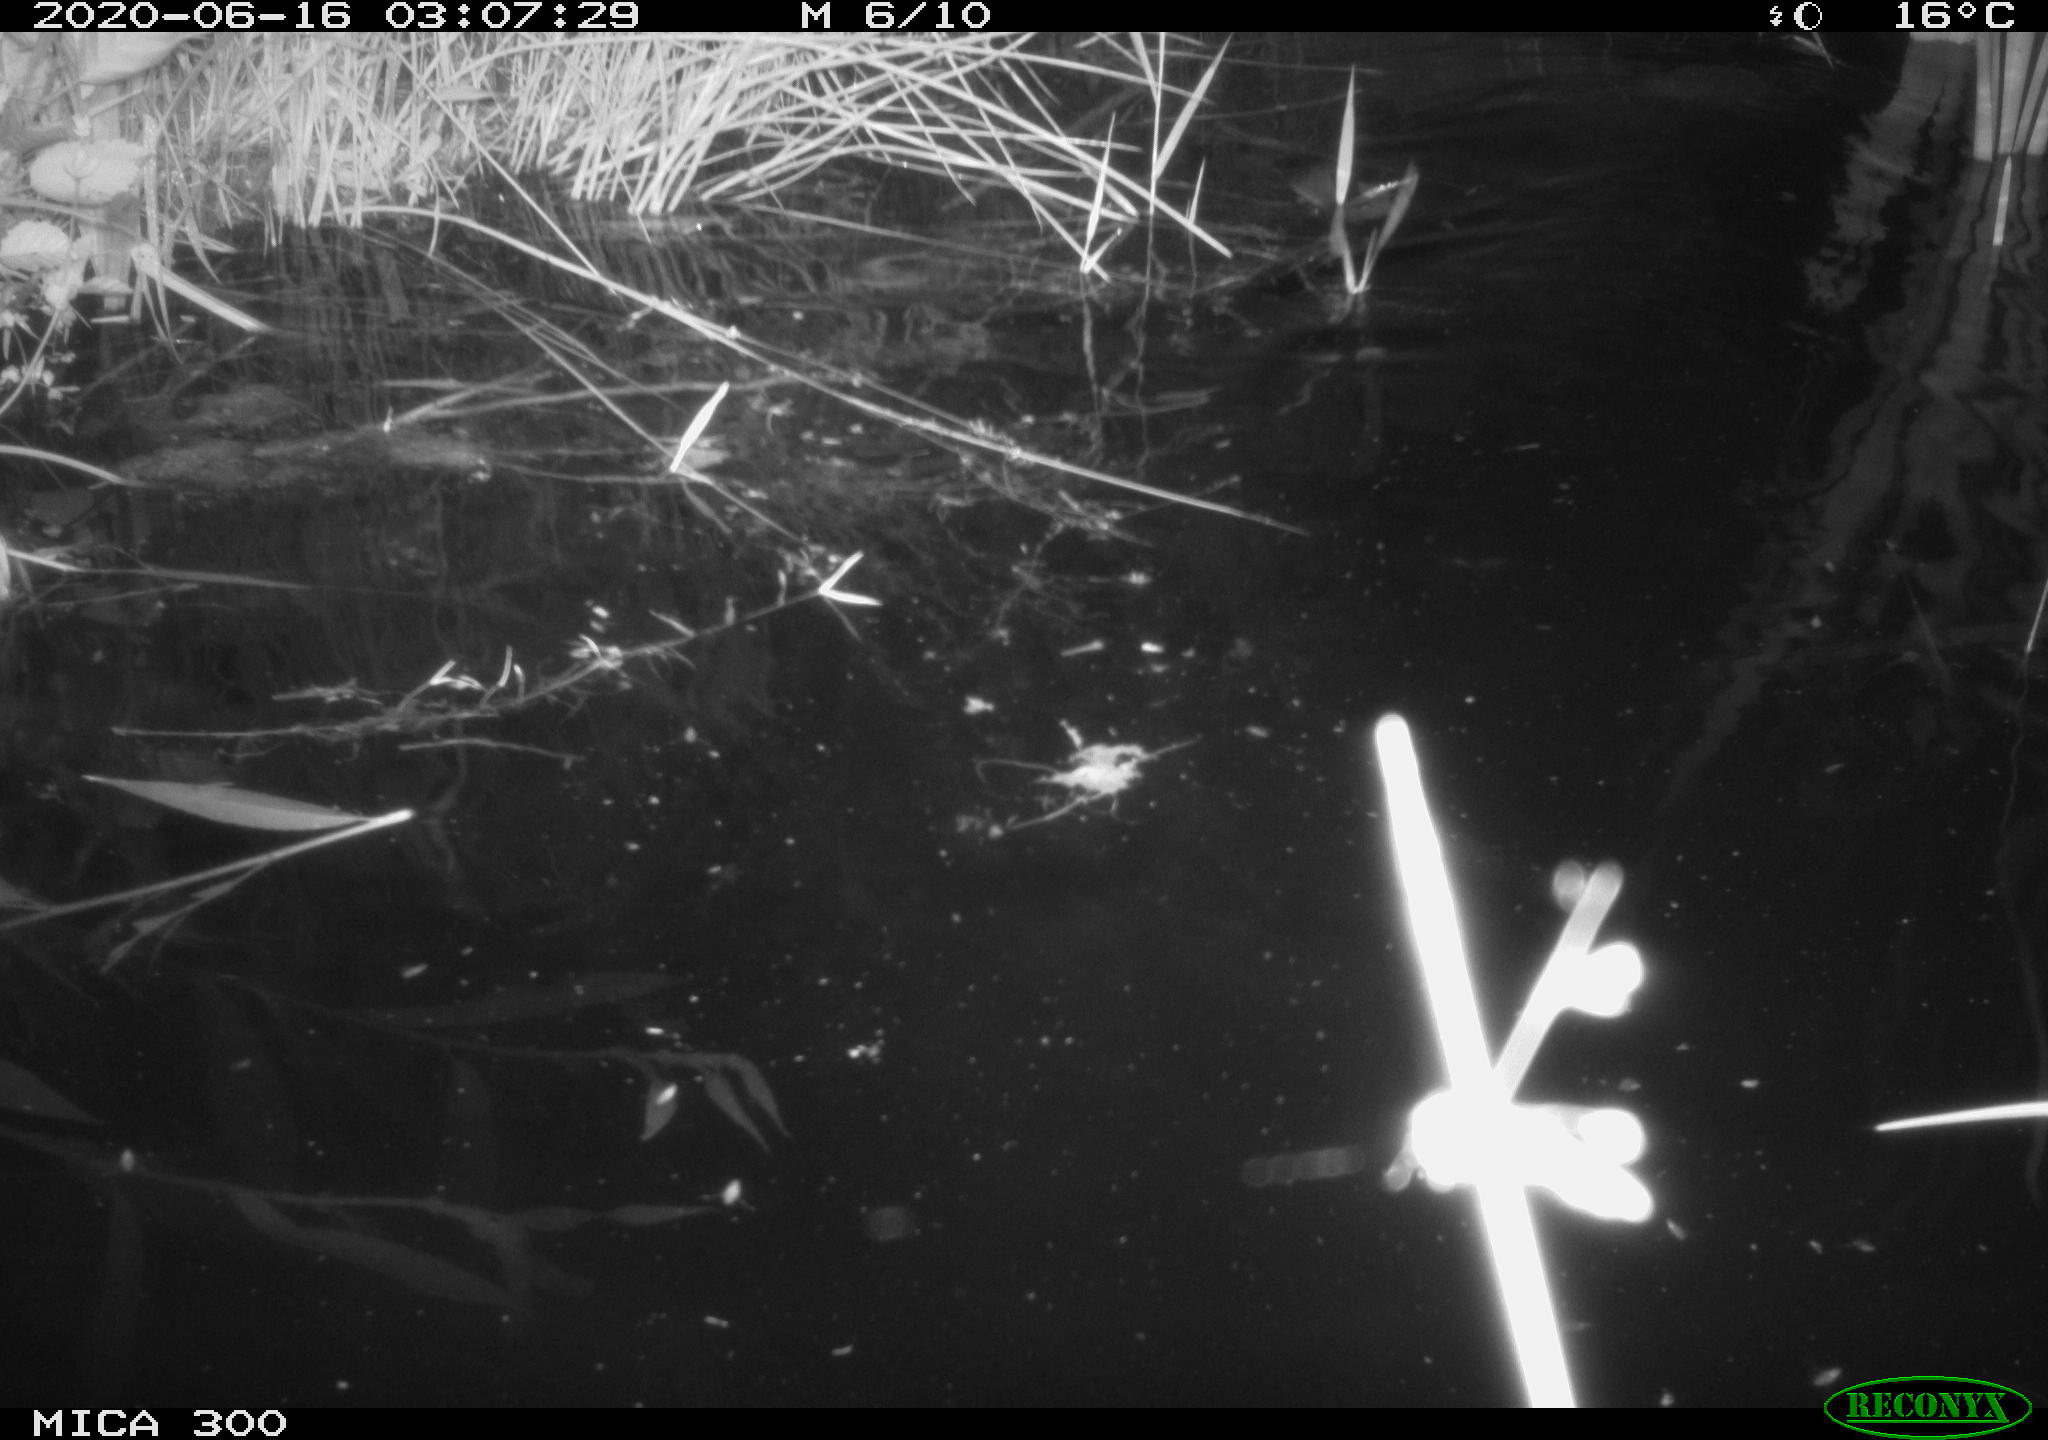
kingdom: Animalia
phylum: Chordata
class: Mammalia
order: Rodentia
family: Castoridae
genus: Castor
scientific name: Castor fiber
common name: Eurasian beaver
